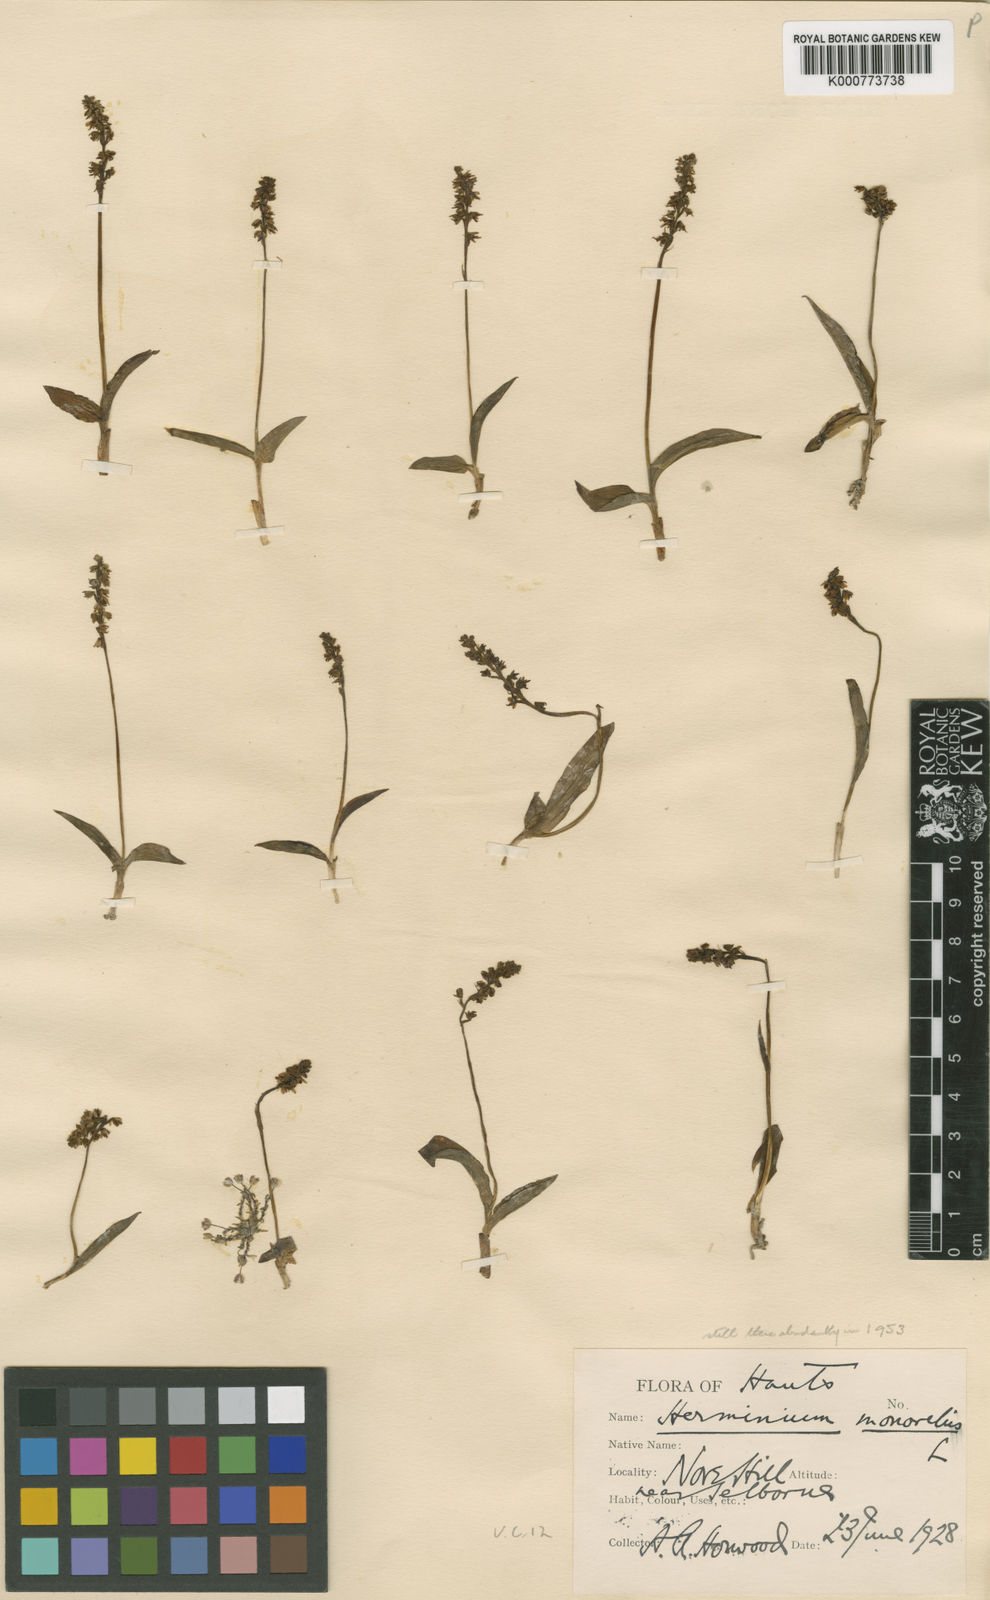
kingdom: Plantae
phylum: Tracheophyta
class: Liliopsida
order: Asparagales
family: Orchidaceae
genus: Herminium
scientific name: Herminium monorchis
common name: Musk orchid
